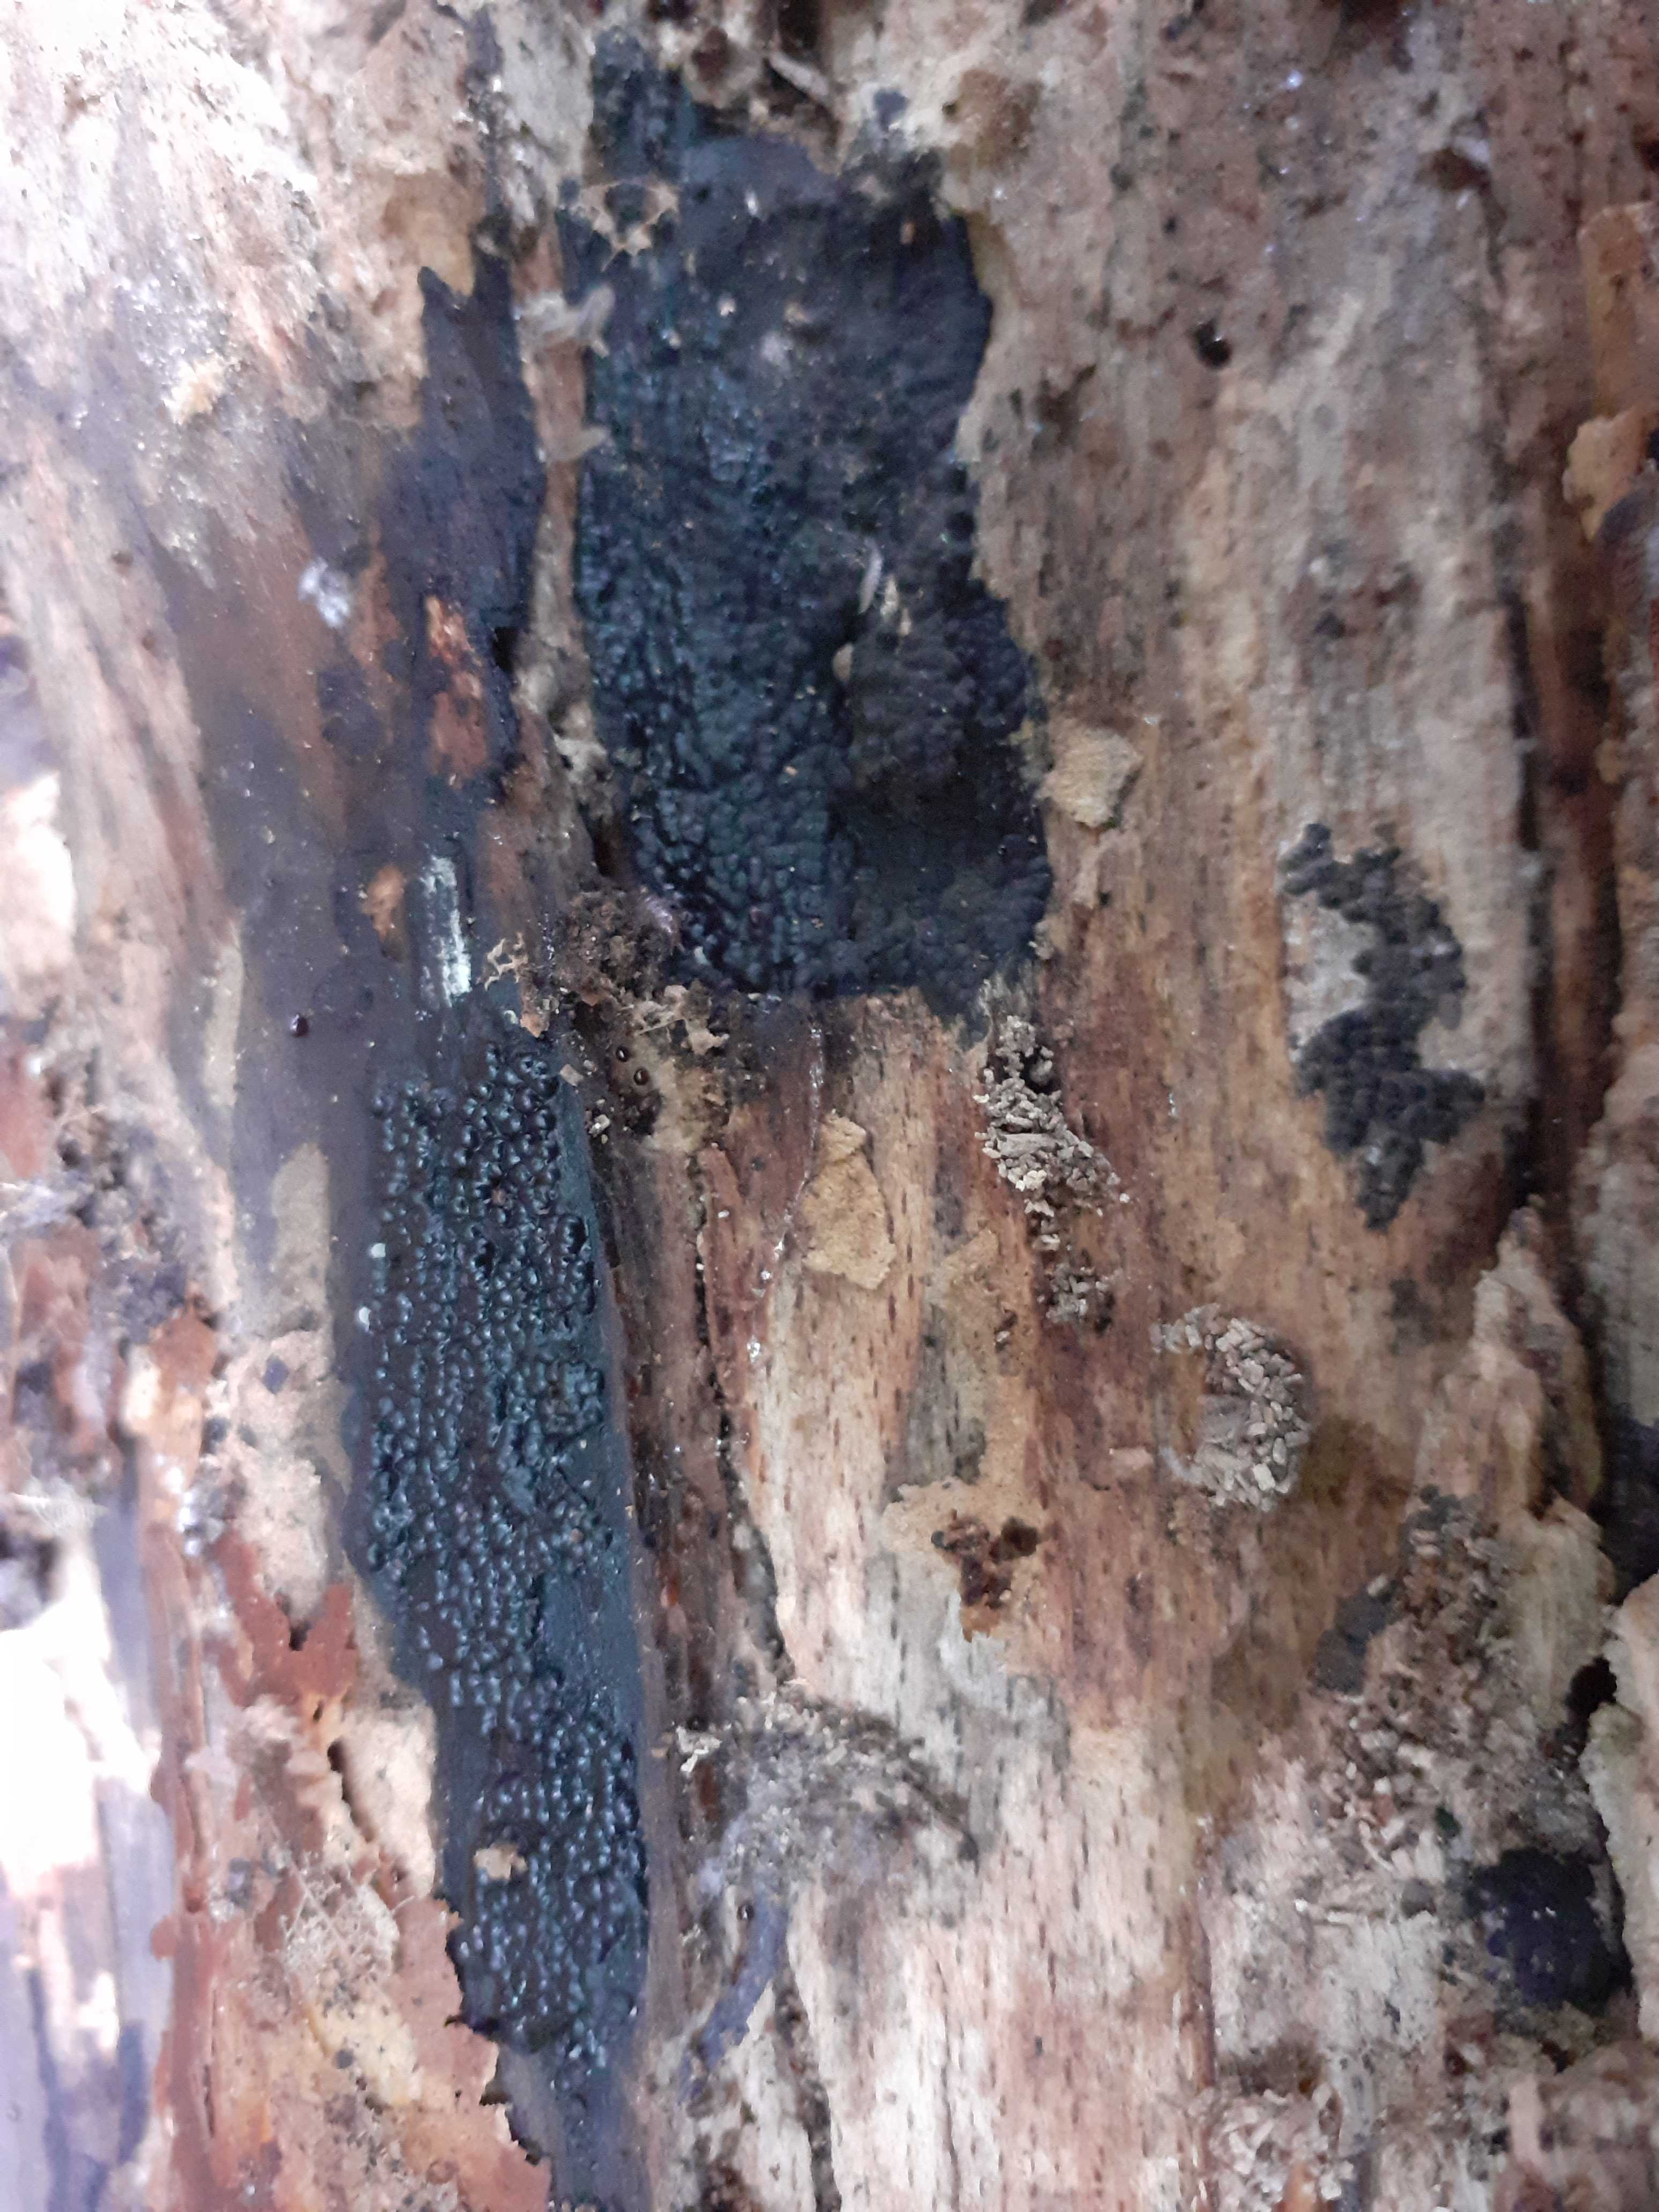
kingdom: Fungi
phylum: Ascomycota
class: Sordariomycetes
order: Xylariales
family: Xylariaceae
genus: Nemania
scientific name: Nemania
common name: kuldyne
